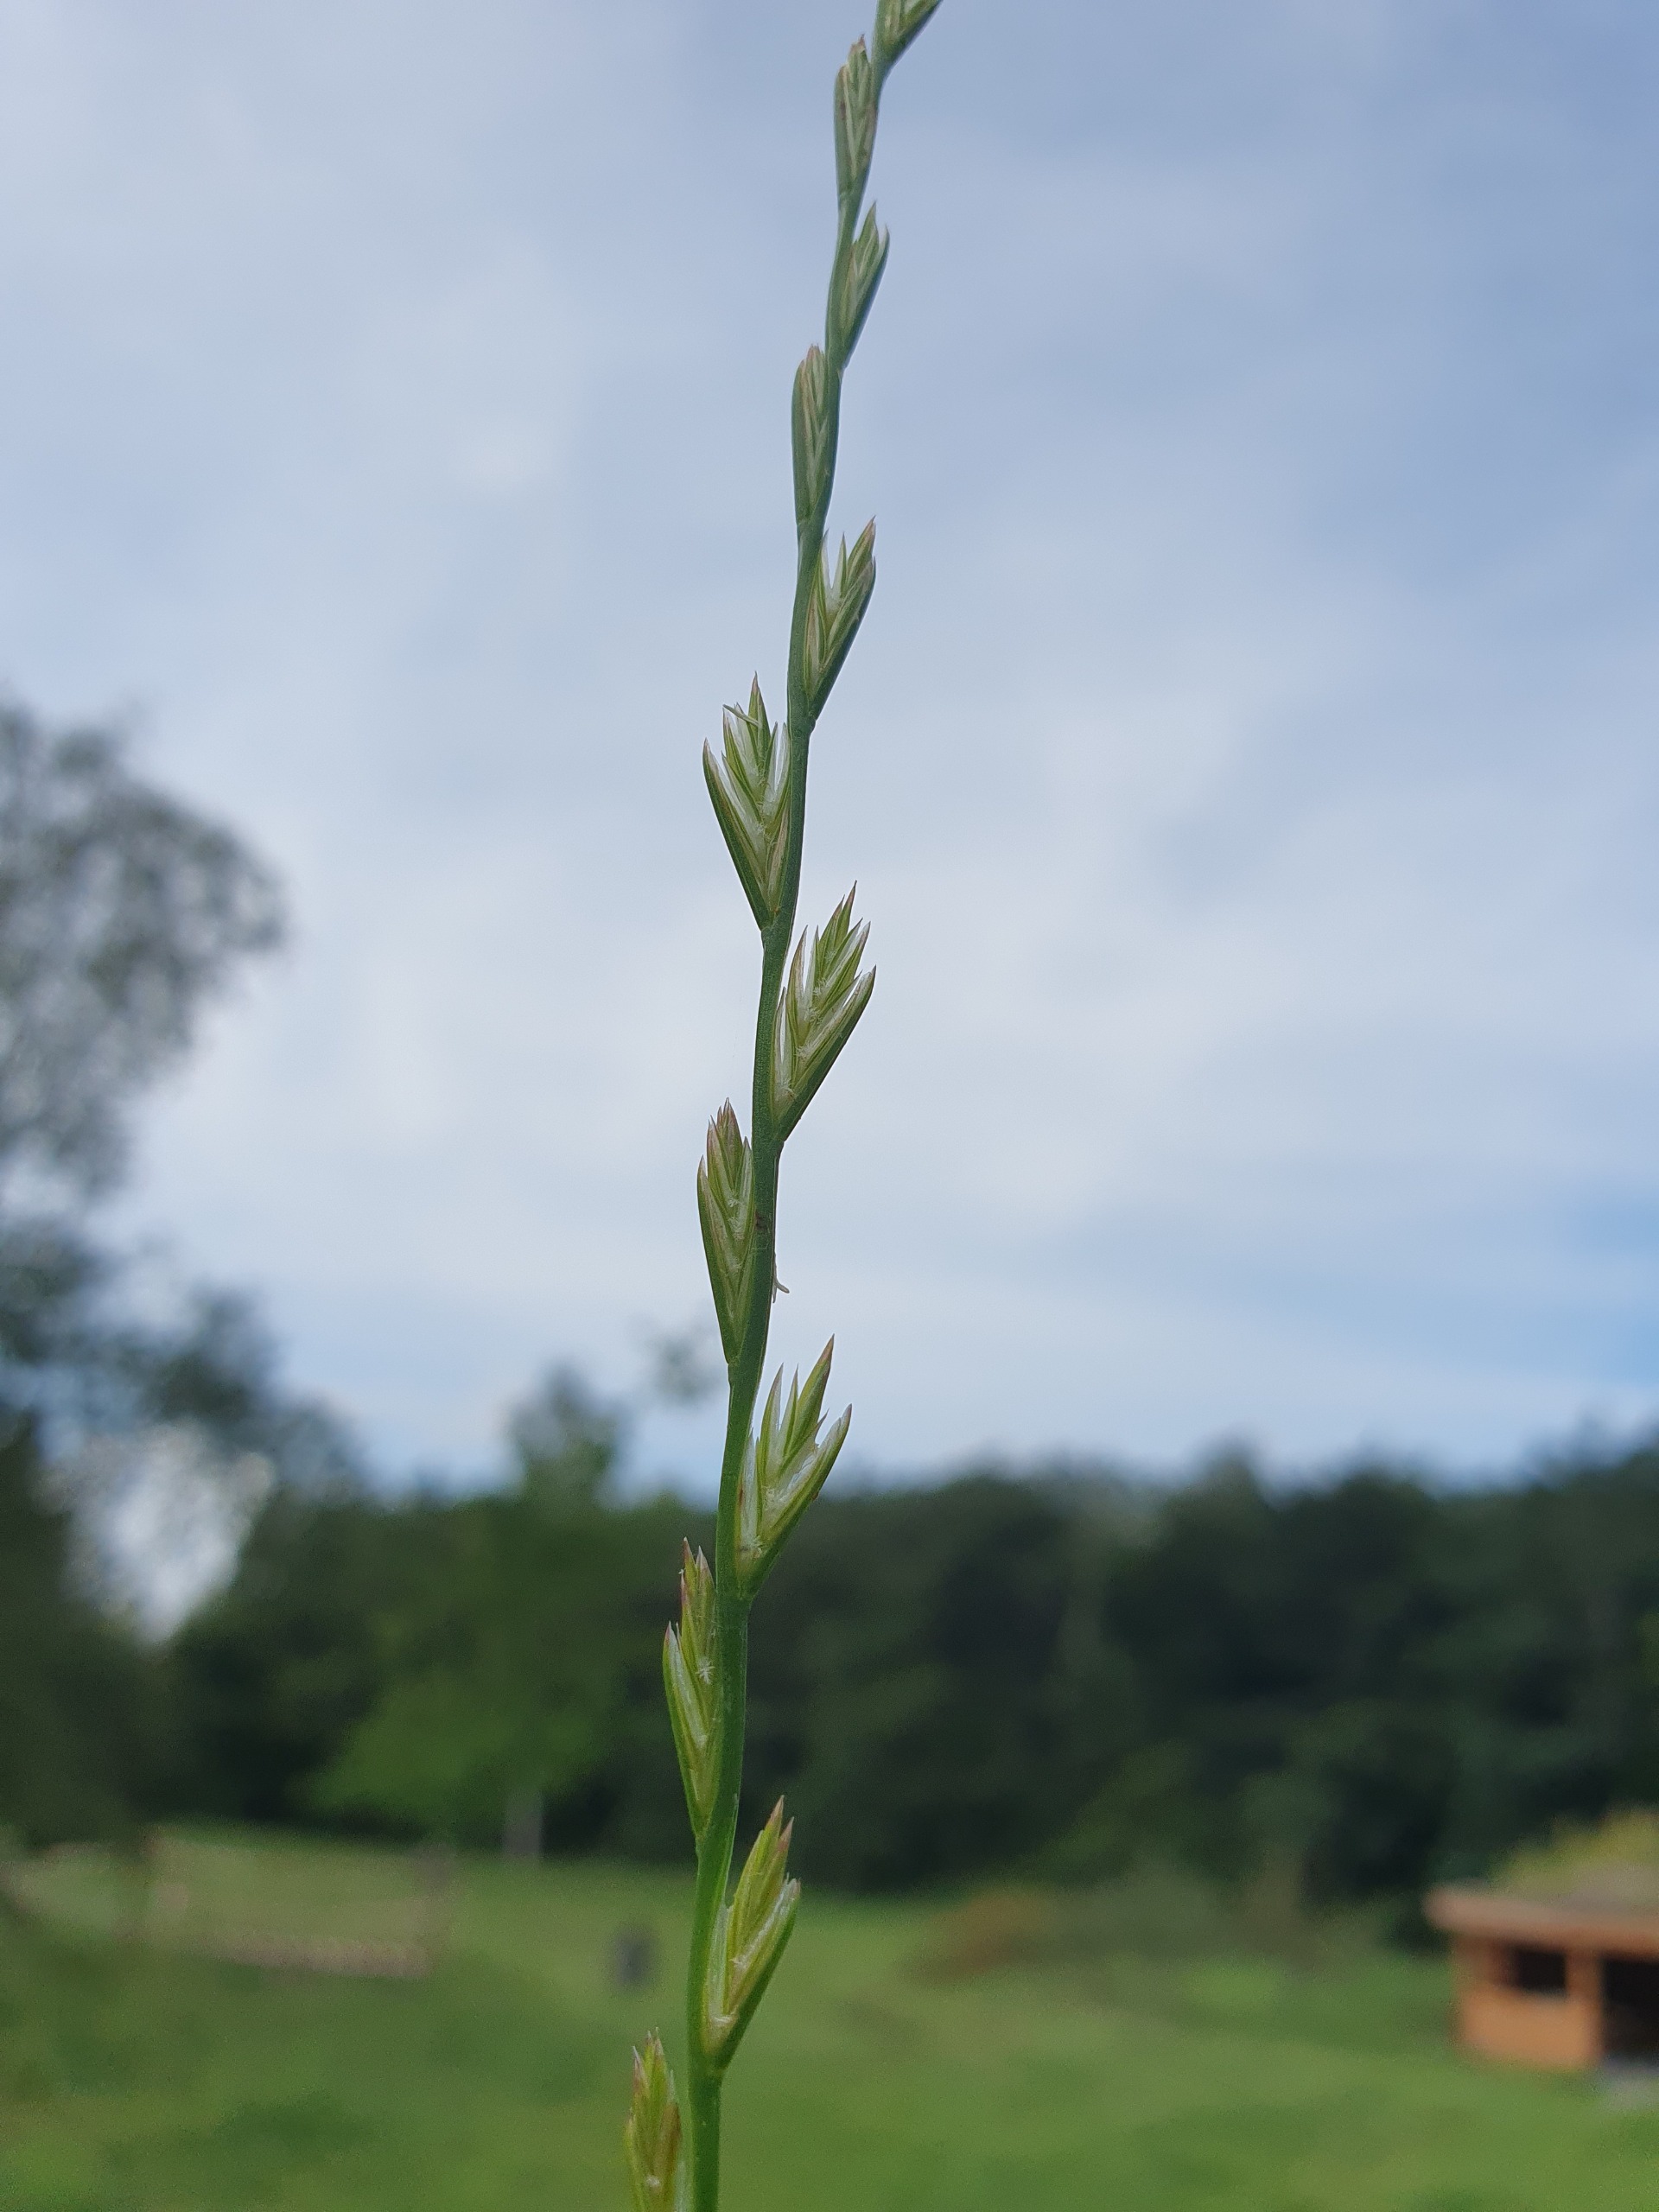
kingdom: Plantae
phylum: Tracheophyta
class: Liliopsida
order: Poales
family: Poaceae
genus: Lolium
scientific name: Lolium perenne
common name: Almindelig rajgræs
